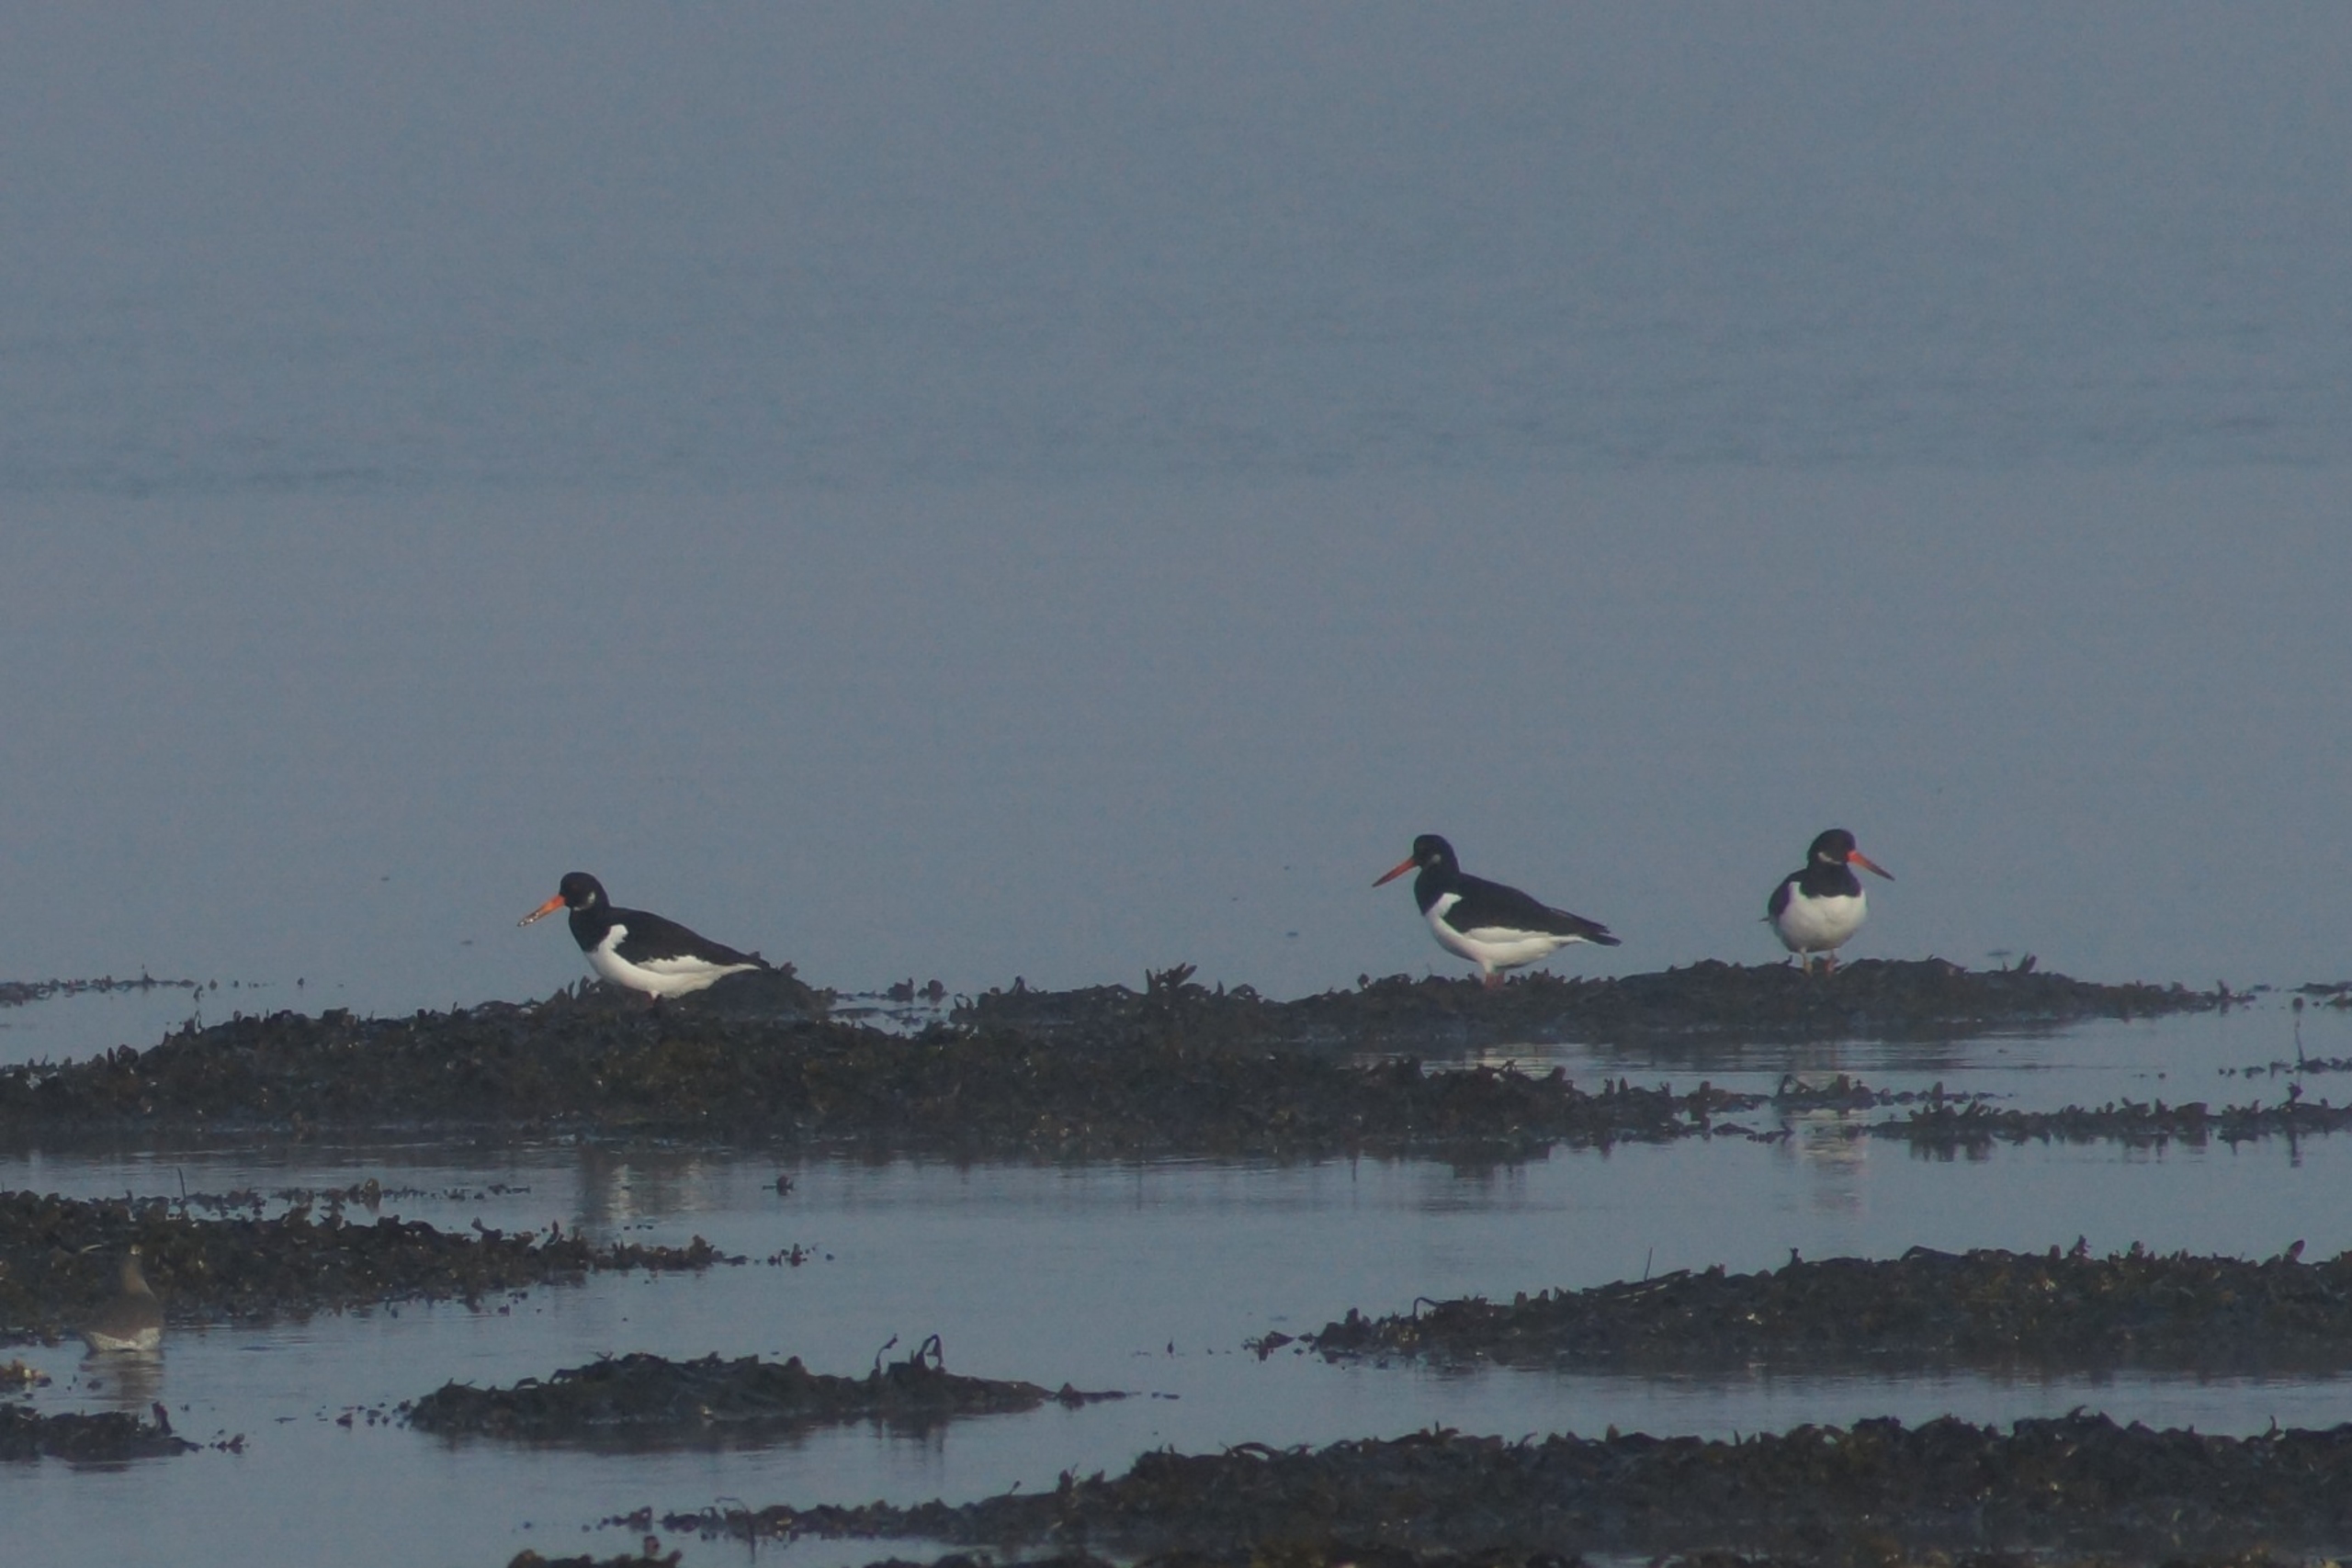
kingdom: Animalia
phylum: Chordata
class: Aves
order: Charadriiformes
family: Haematopodidae
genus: Haematopus
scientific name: Haematopus ostralegus
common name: Strandskade
